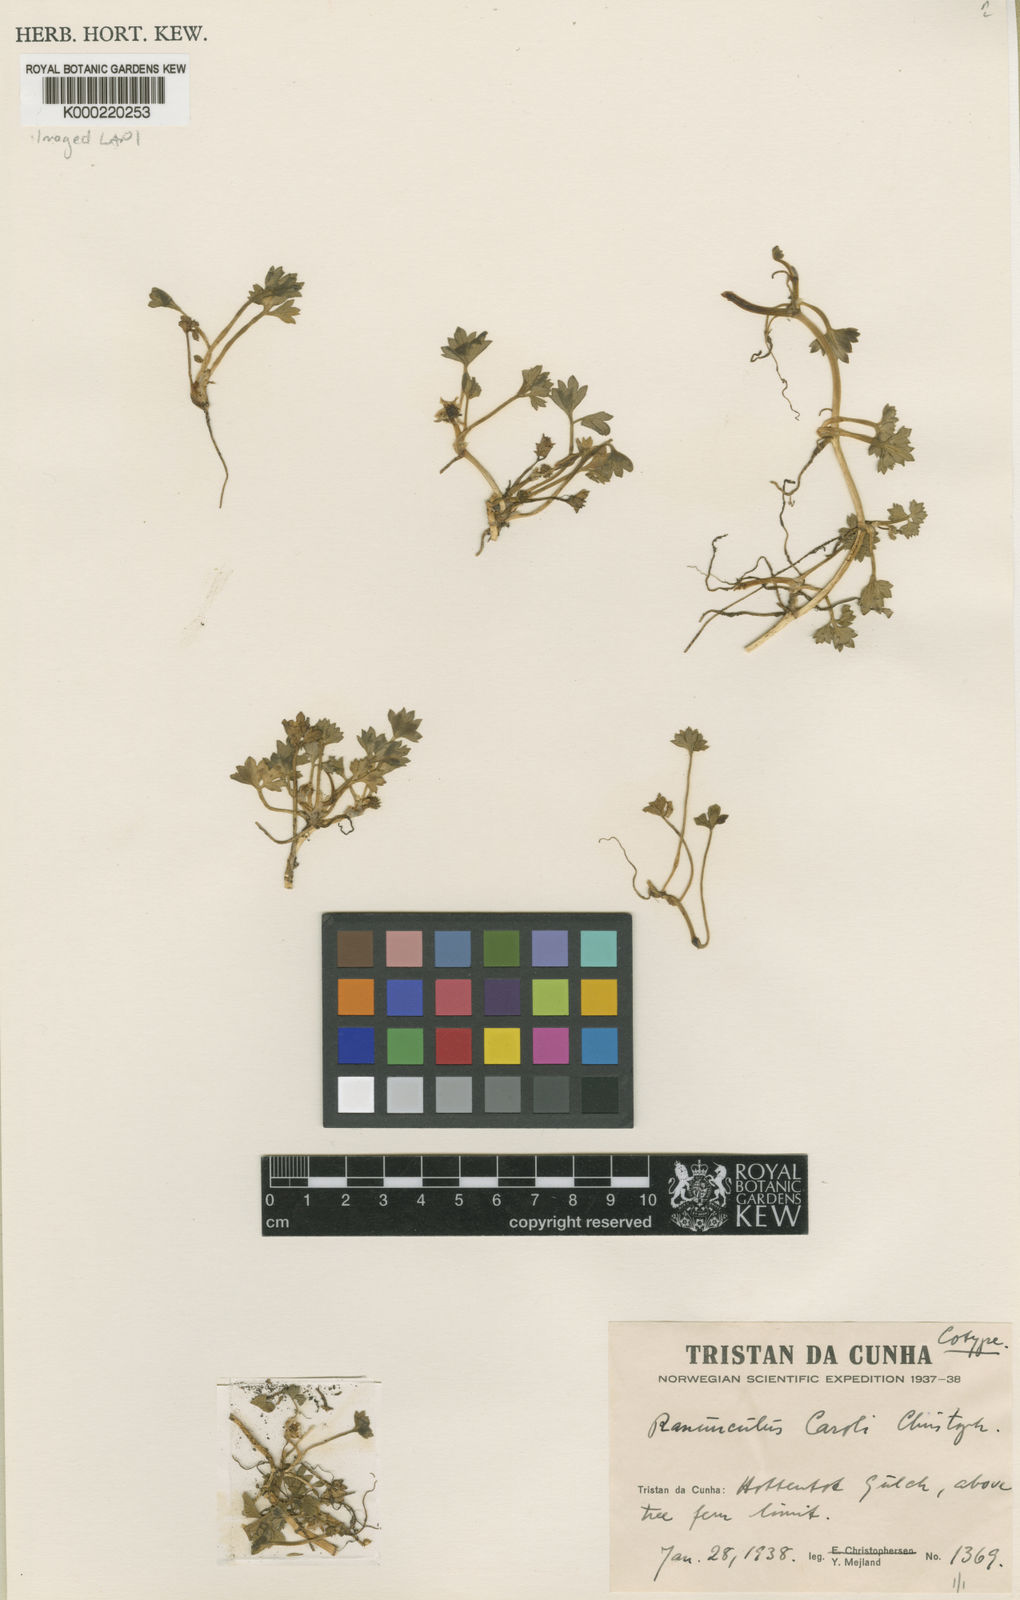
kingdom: Plantae
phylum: Tracheophyta
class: Magnoliopsida
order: Ranunculales
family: Ranunculaceae
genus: Ranunculus
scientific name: Ranunculus caroli
